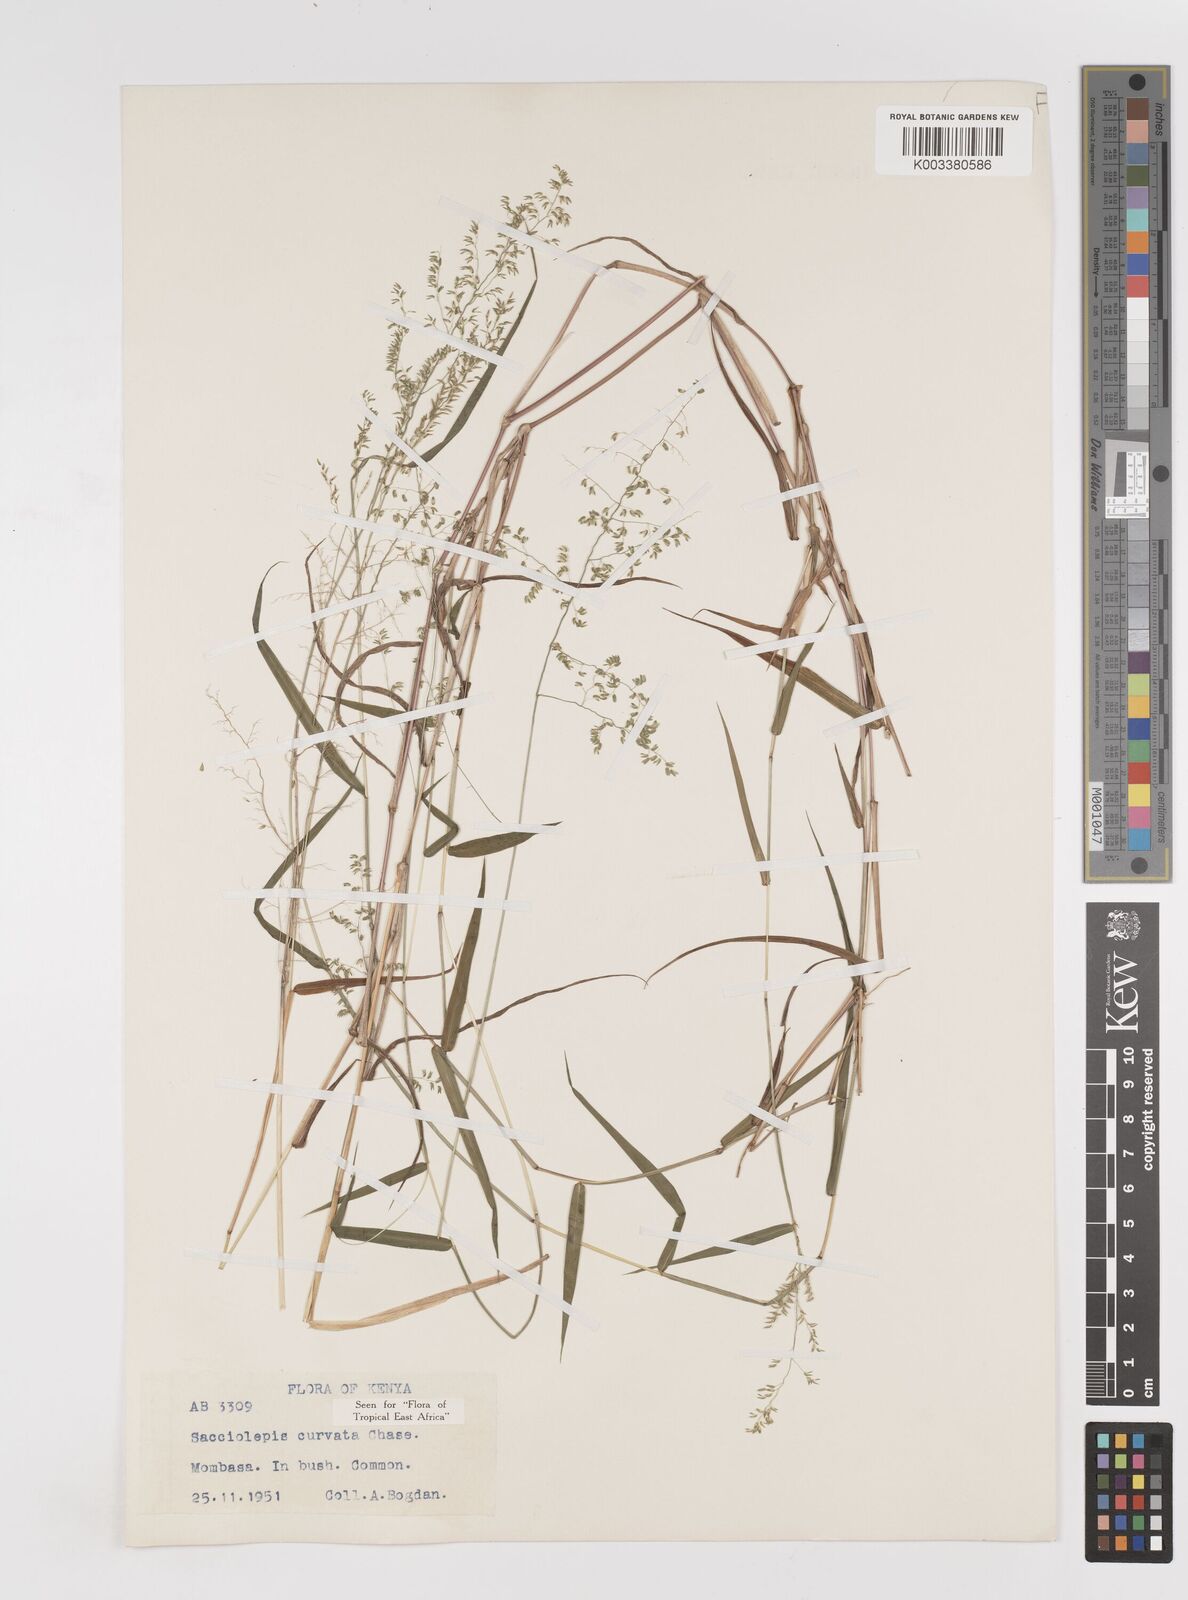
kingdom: Plantae
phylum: Tracheophyta
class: Liliopsida
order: Poales
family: Poaceae
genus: Sacciolepis
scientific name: Sacciolepis curvata
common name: Forest hood grass
